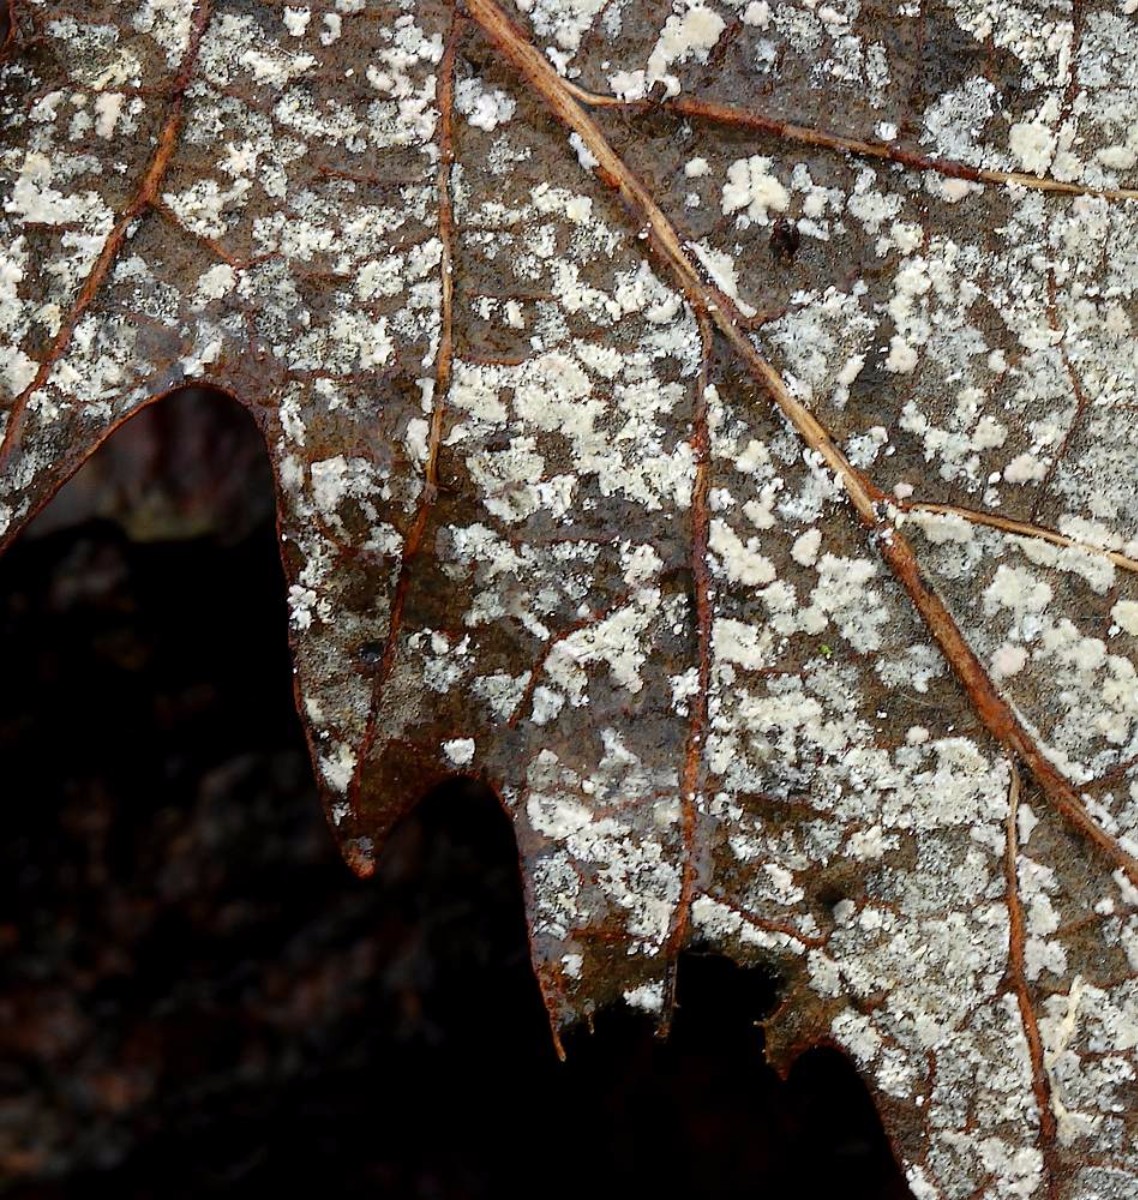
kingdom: Fungi
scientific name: Fungi
